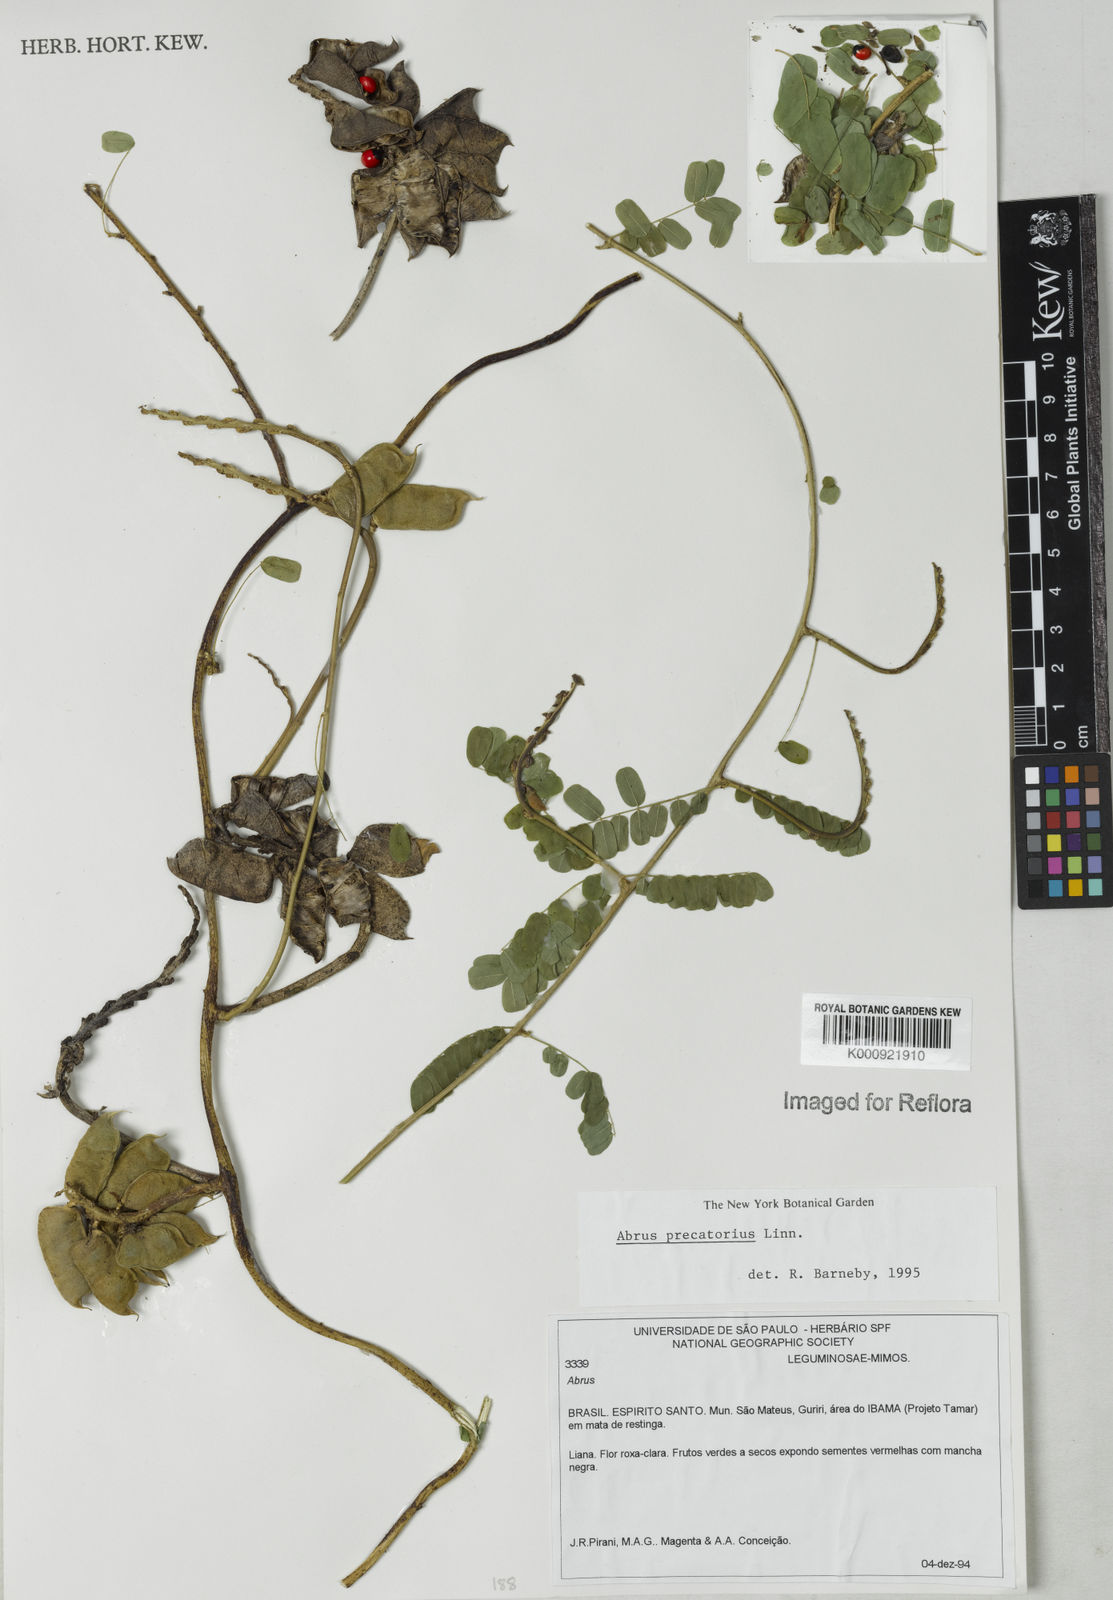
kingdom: Plantae
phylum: Tracheophyta
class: Magnoliopsida
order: Fabales
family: Fabaceae
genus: Abrus
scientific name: Abrus precatorius
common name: Rosarypea
